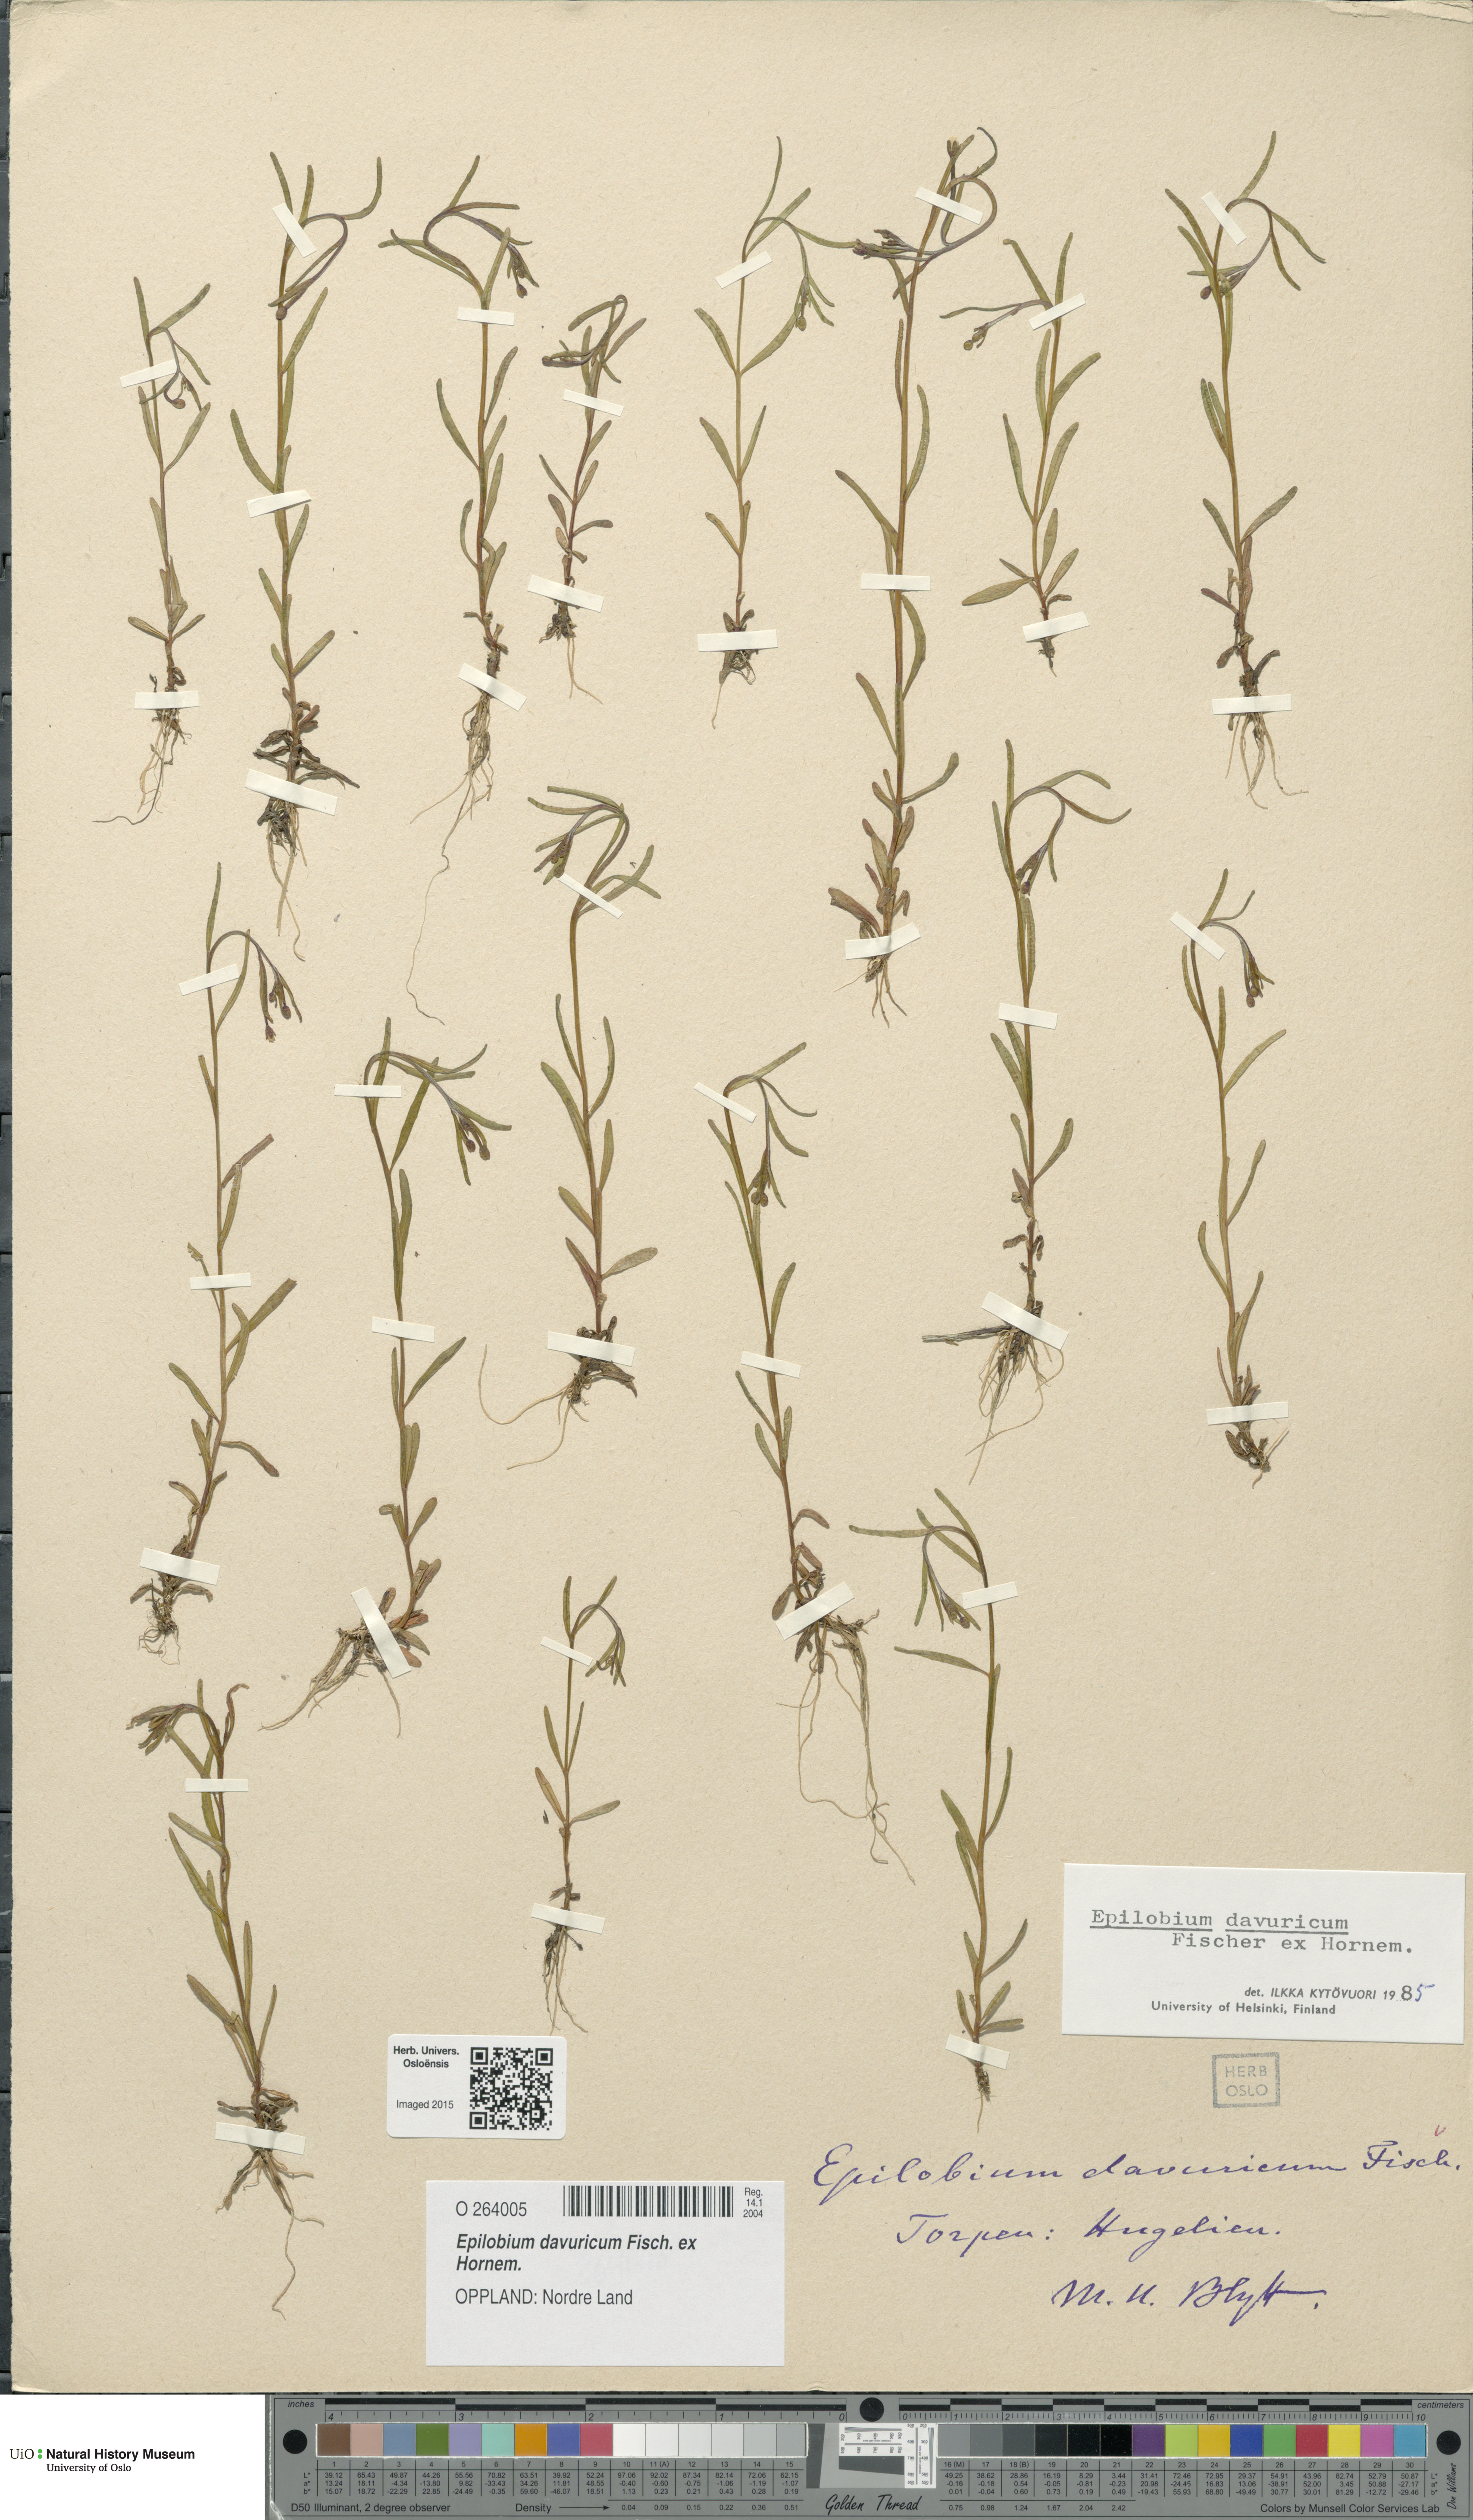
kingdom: Plantae
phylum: Tracheophyta
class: Magnoliopsida
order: Myrtales
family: Onagraceae
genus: Epilobium
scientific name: Epilobium davuricum
